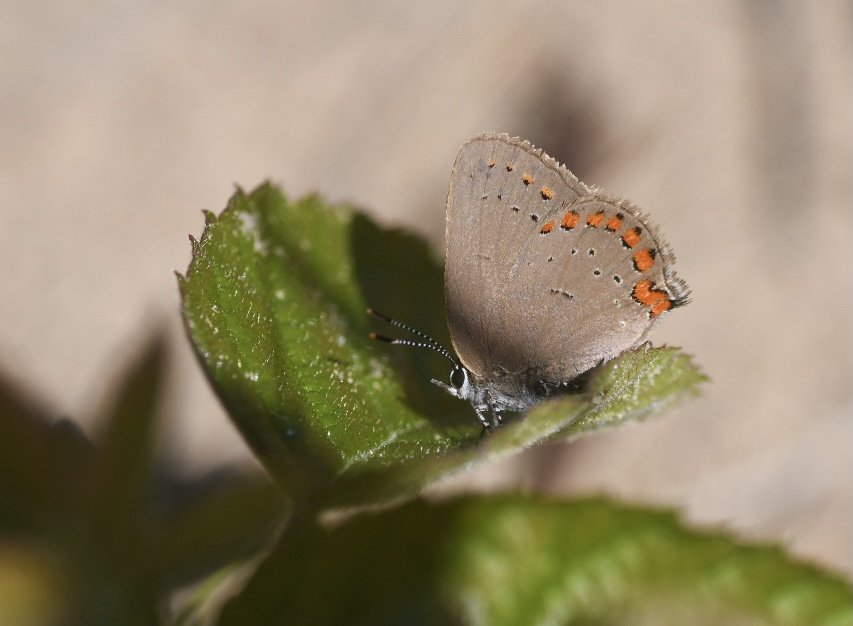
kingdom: Animalia
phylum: Arthropoda
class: Insecta
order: Lepidoptera
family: Lycaenidae
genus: Harkenclenus
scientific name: Harkenclenus titus
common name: Coral Hairstreak
